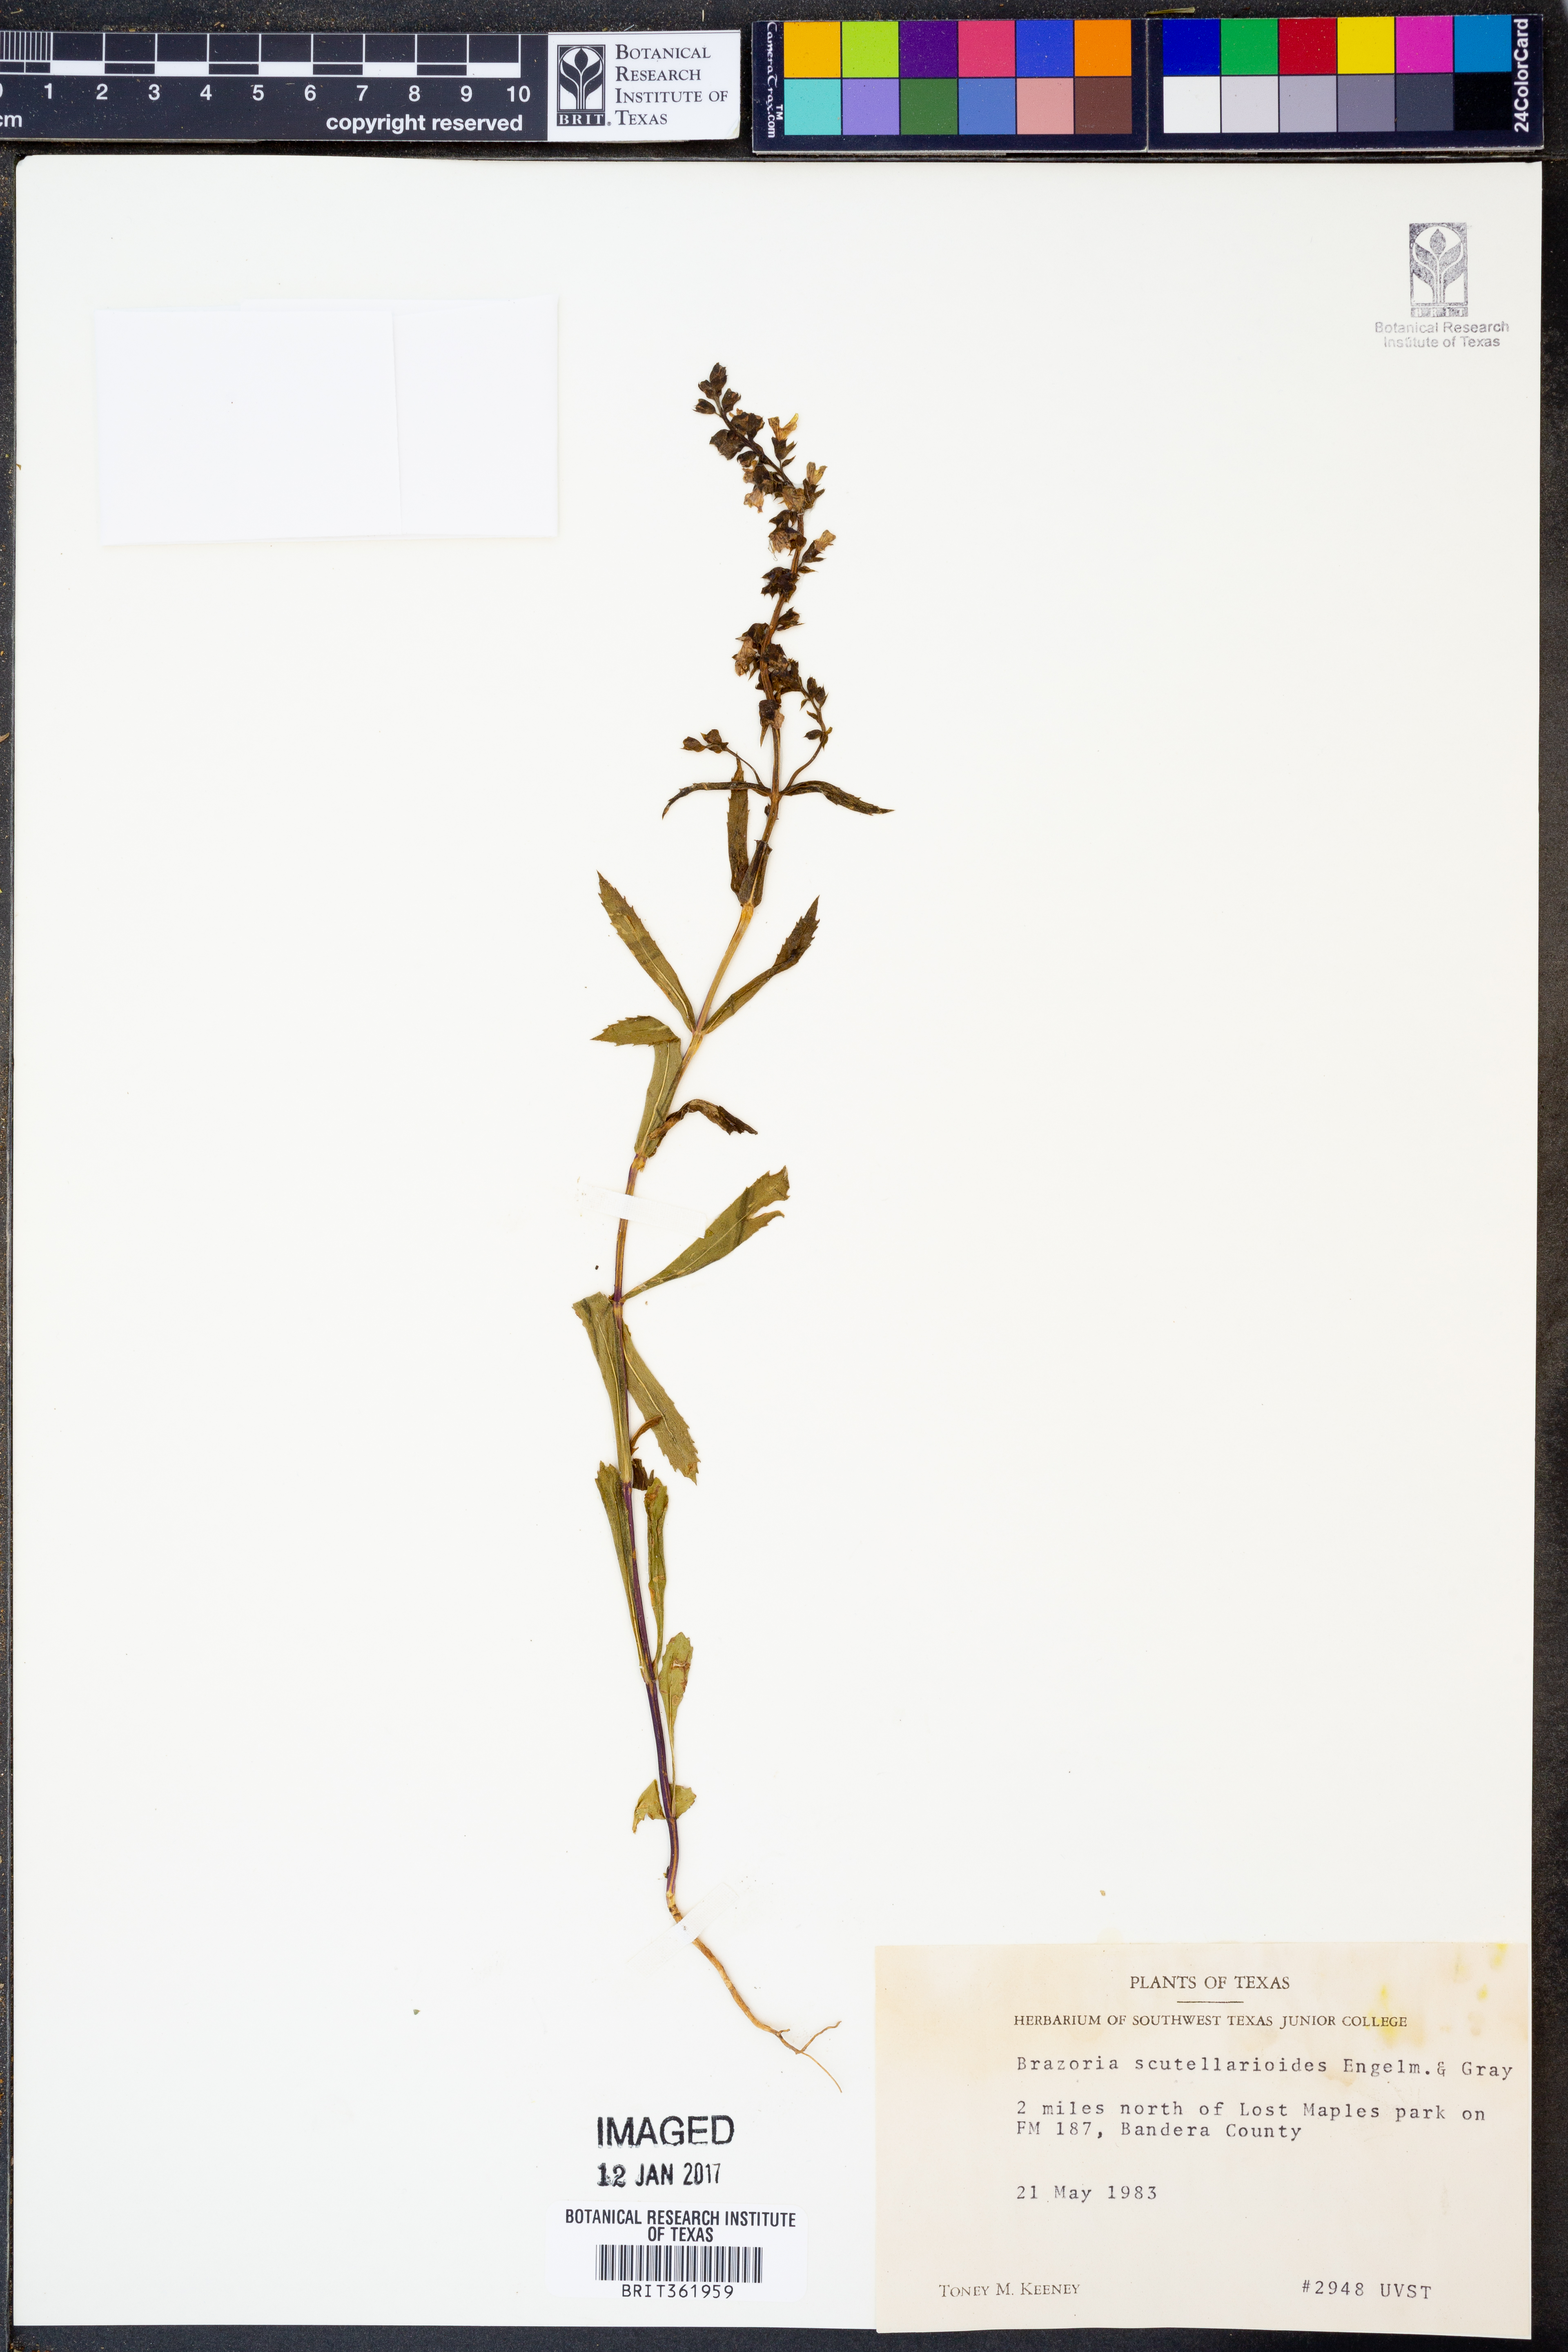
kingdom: Plantae
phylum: Tracheophyta
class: Magnoliopsida
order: Lamiales
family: Lamiaceae
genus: Warnockia
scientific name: Warnockia scutellarioides
